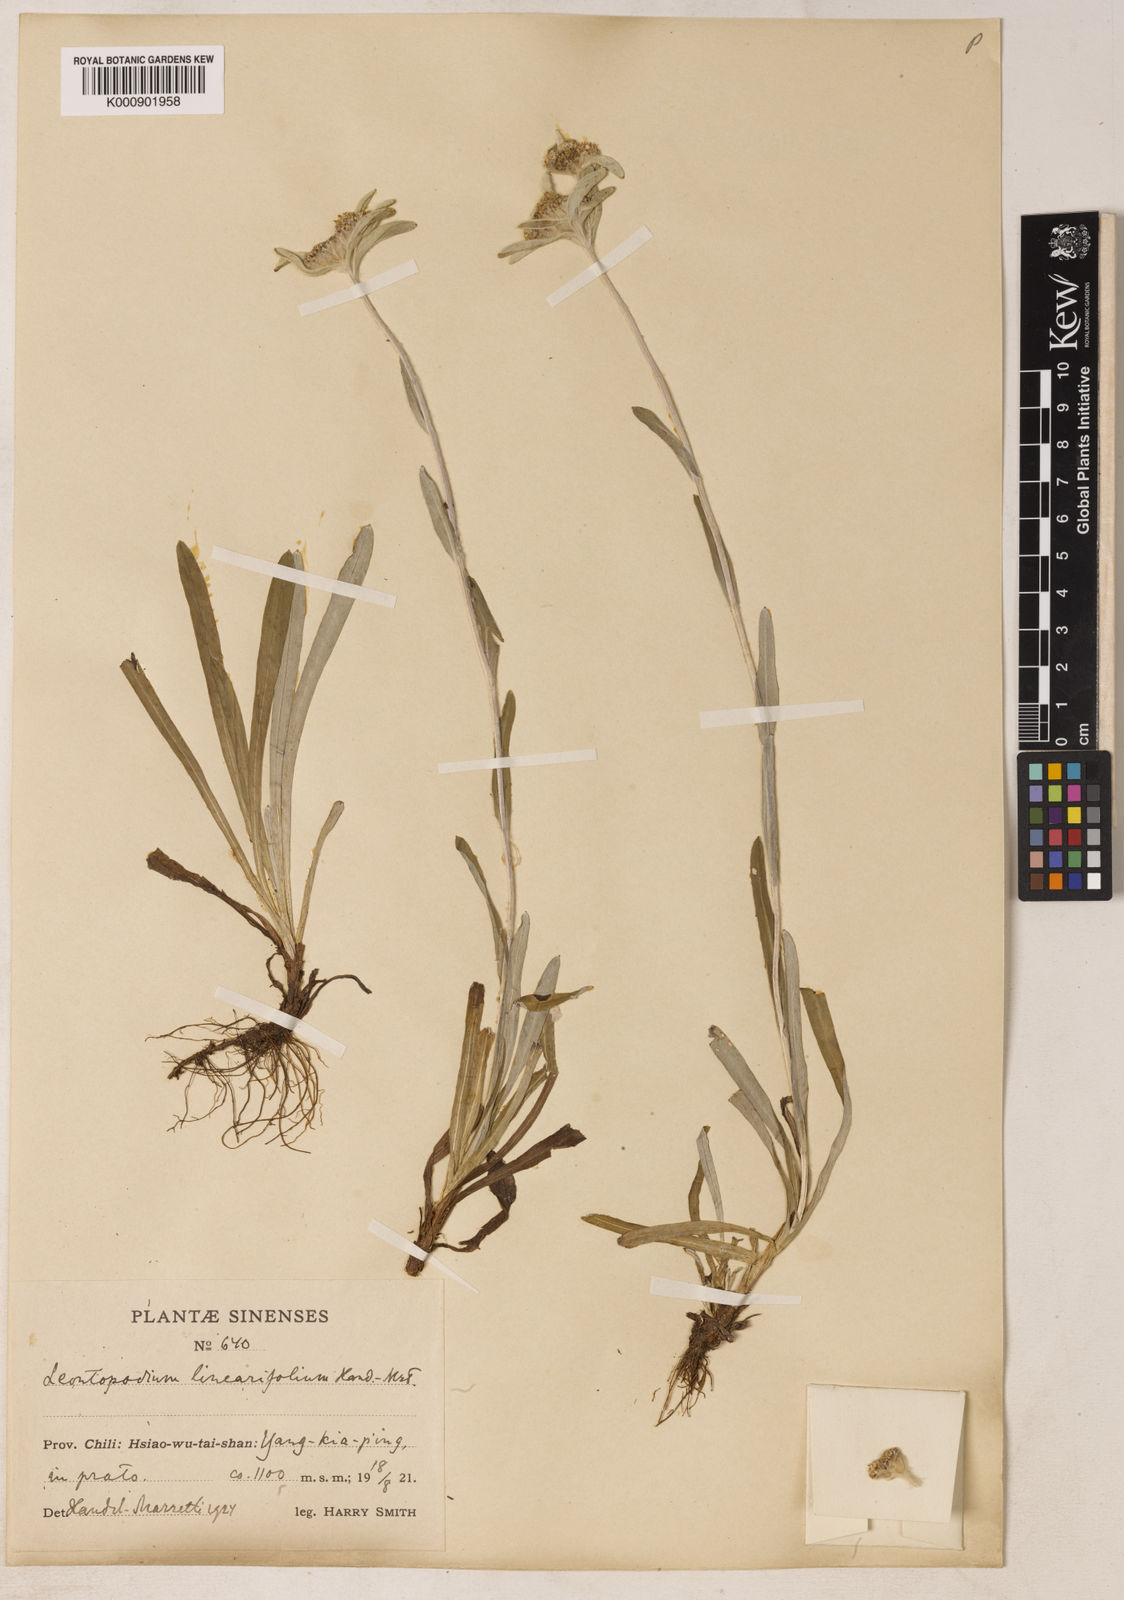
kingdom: Plantae
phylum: Tracheophyta
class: Magnoliopsida
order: Asterales
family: Asteraceae
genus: Leontopodium
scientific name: Leontopodium junpeianum
